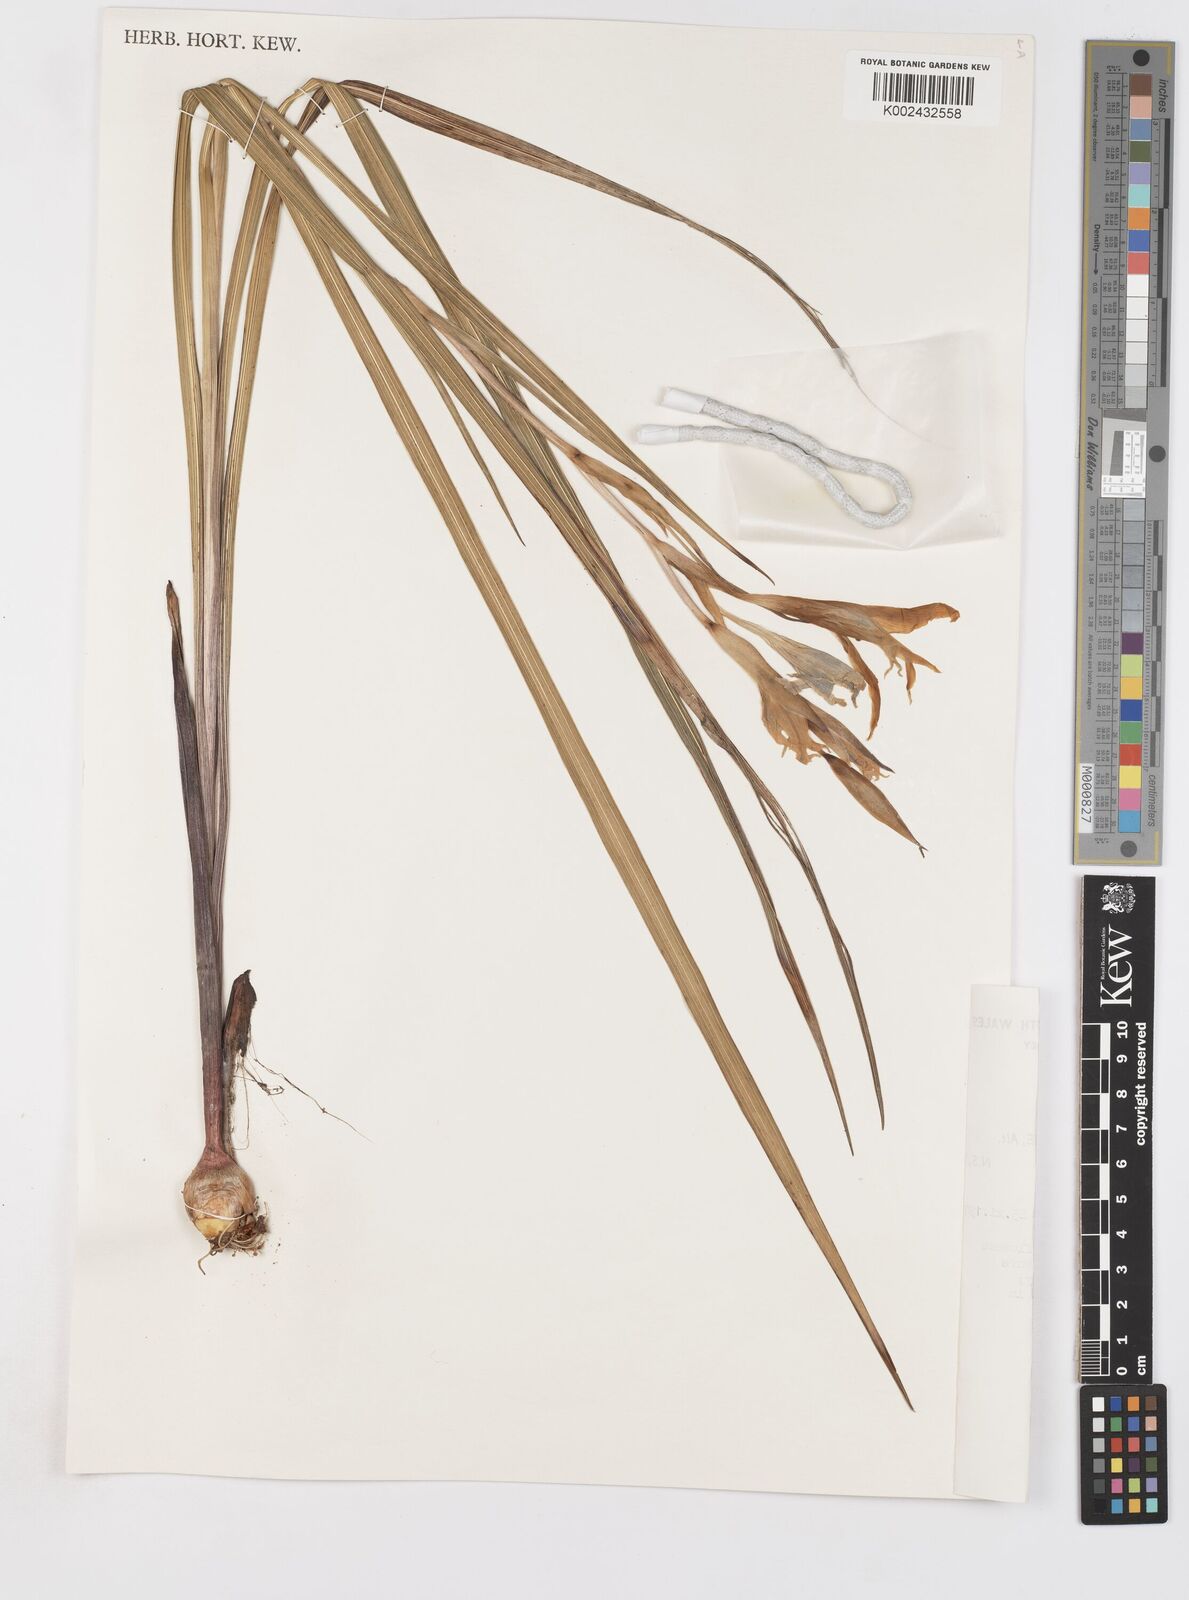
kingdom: Plantae
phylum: Tracheophyta
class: Liliopsida
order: Asparagales
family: Iridaceae
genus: Gladiolus
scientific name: Gladiolus undulatus
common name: Large painted-lady
